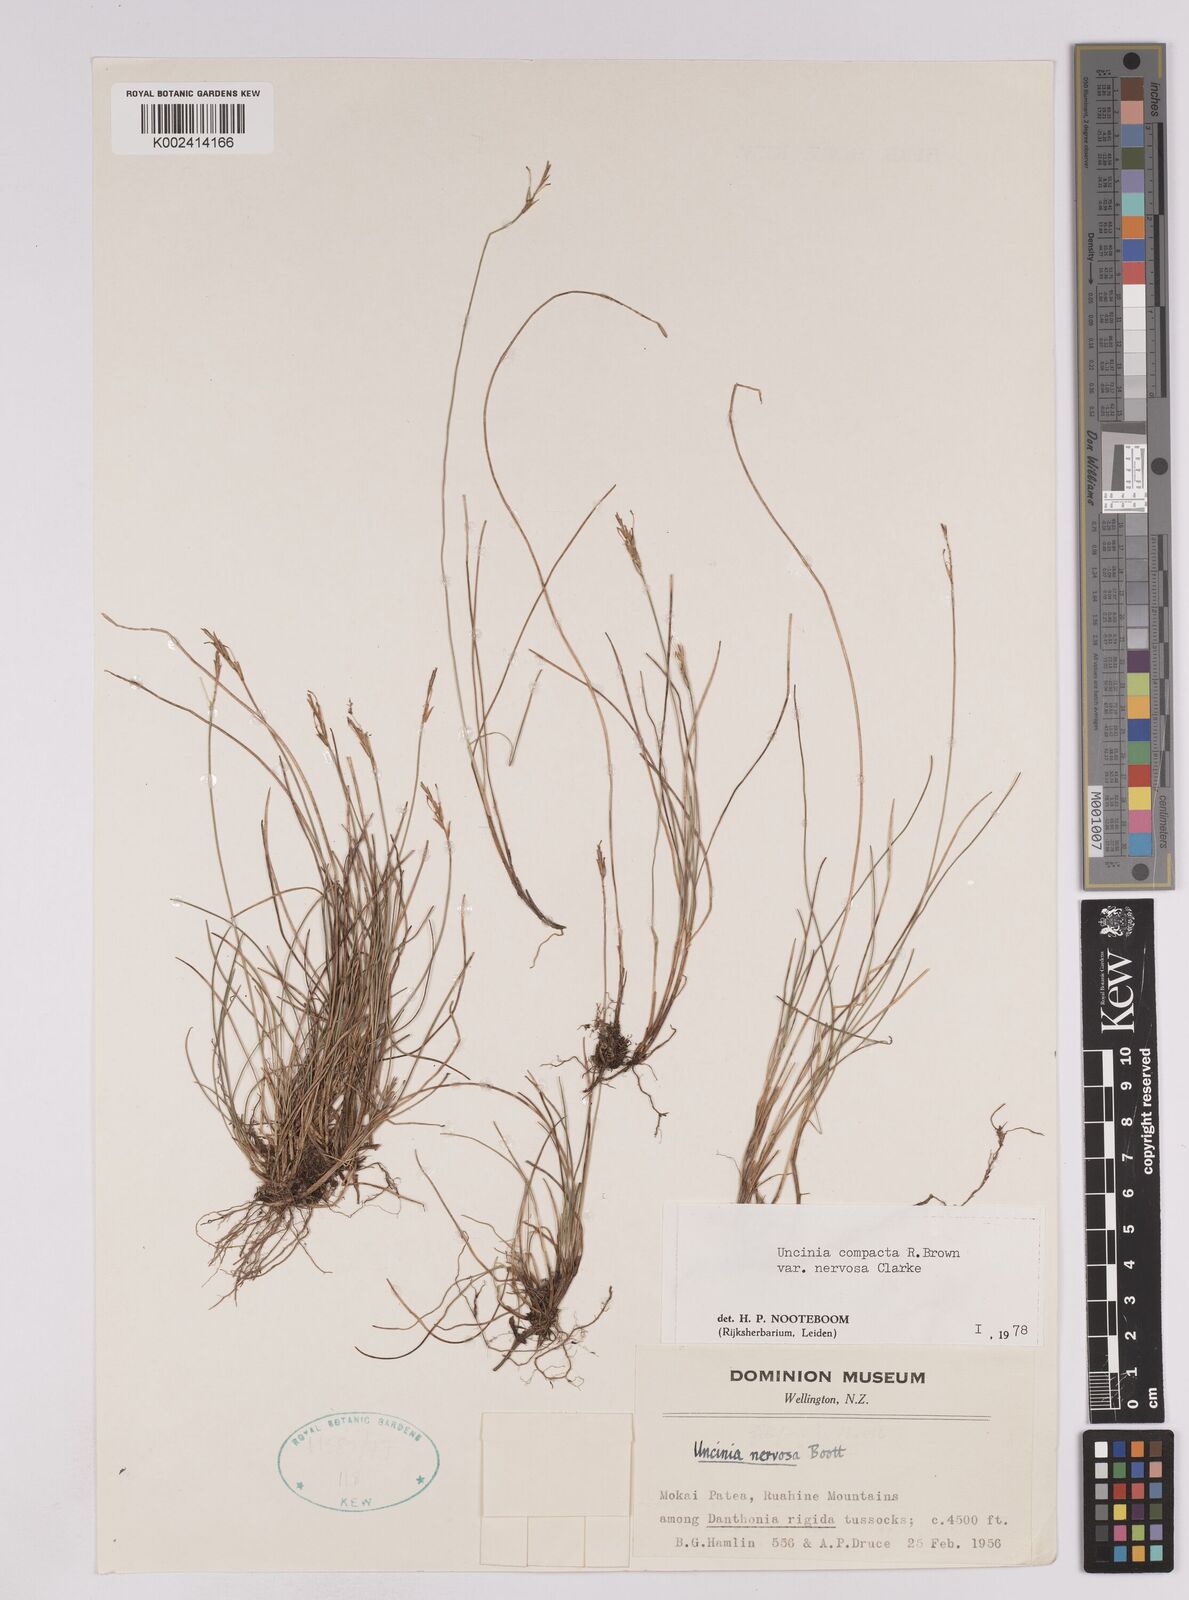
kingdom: Plantae
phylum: Tracheophyta
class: Liliopsida
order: Poales
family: Cyperaceae
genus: Carex
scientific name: Carex cheesemanniana
